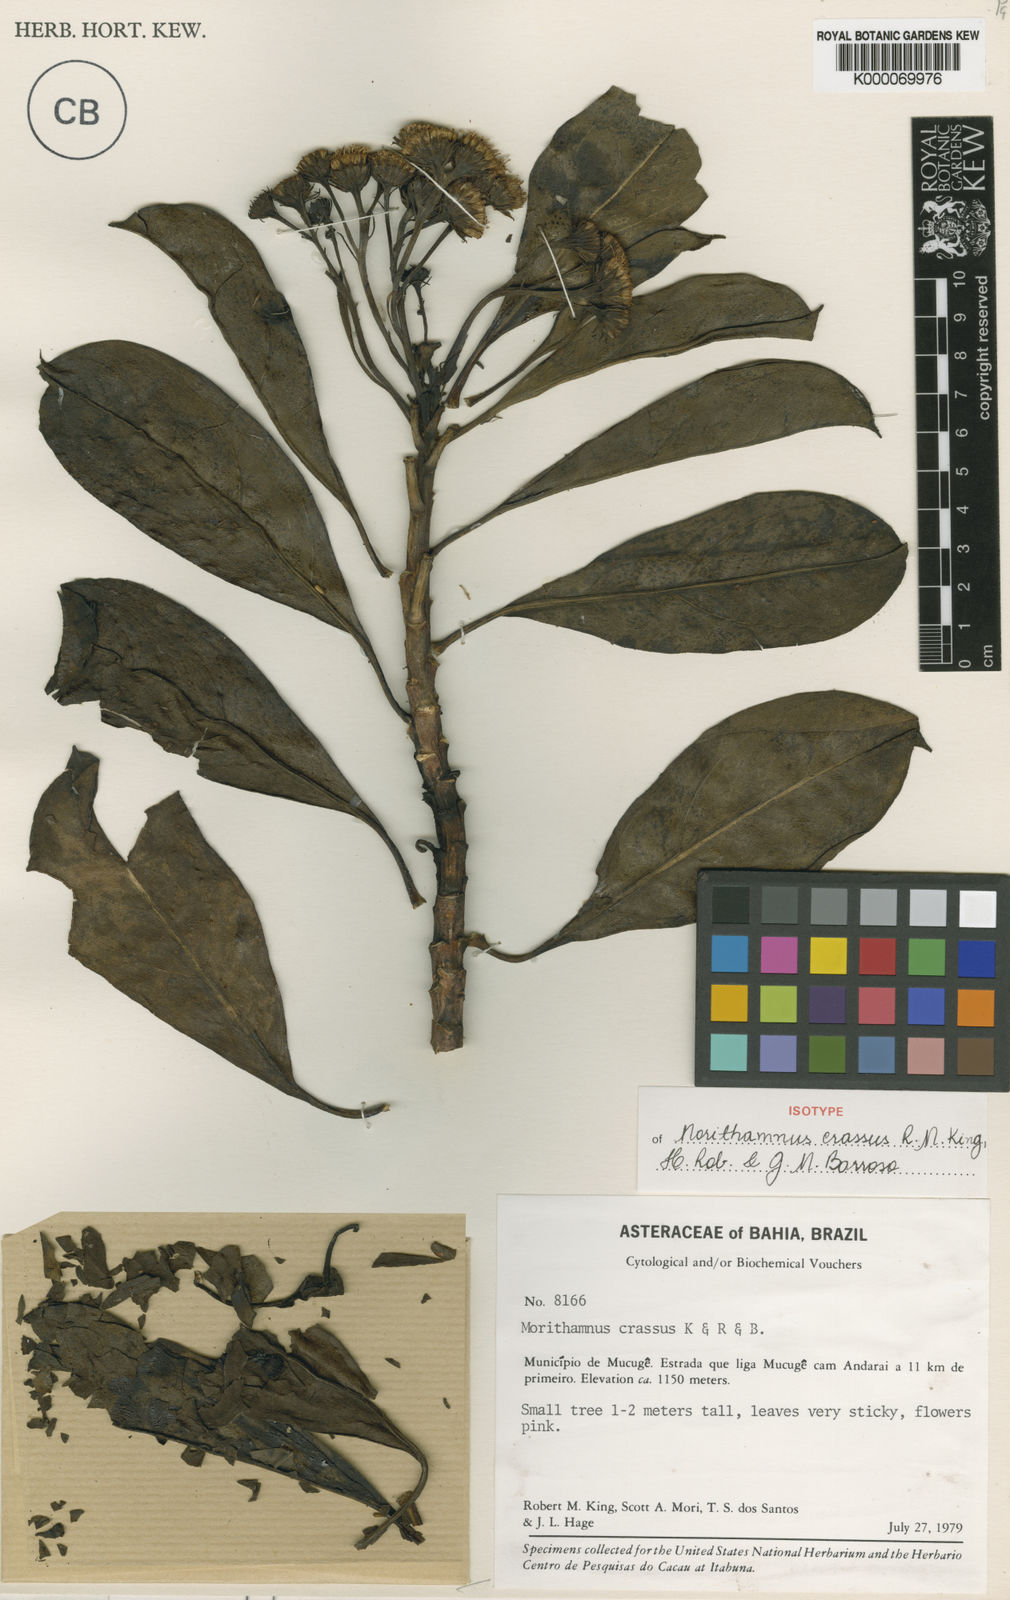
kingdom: Plantae
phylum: Tracheophyta
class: Magnoliopsida
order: Asterales
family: Asteraceae
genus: Morithamnus
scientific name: Morithamnus crassus
